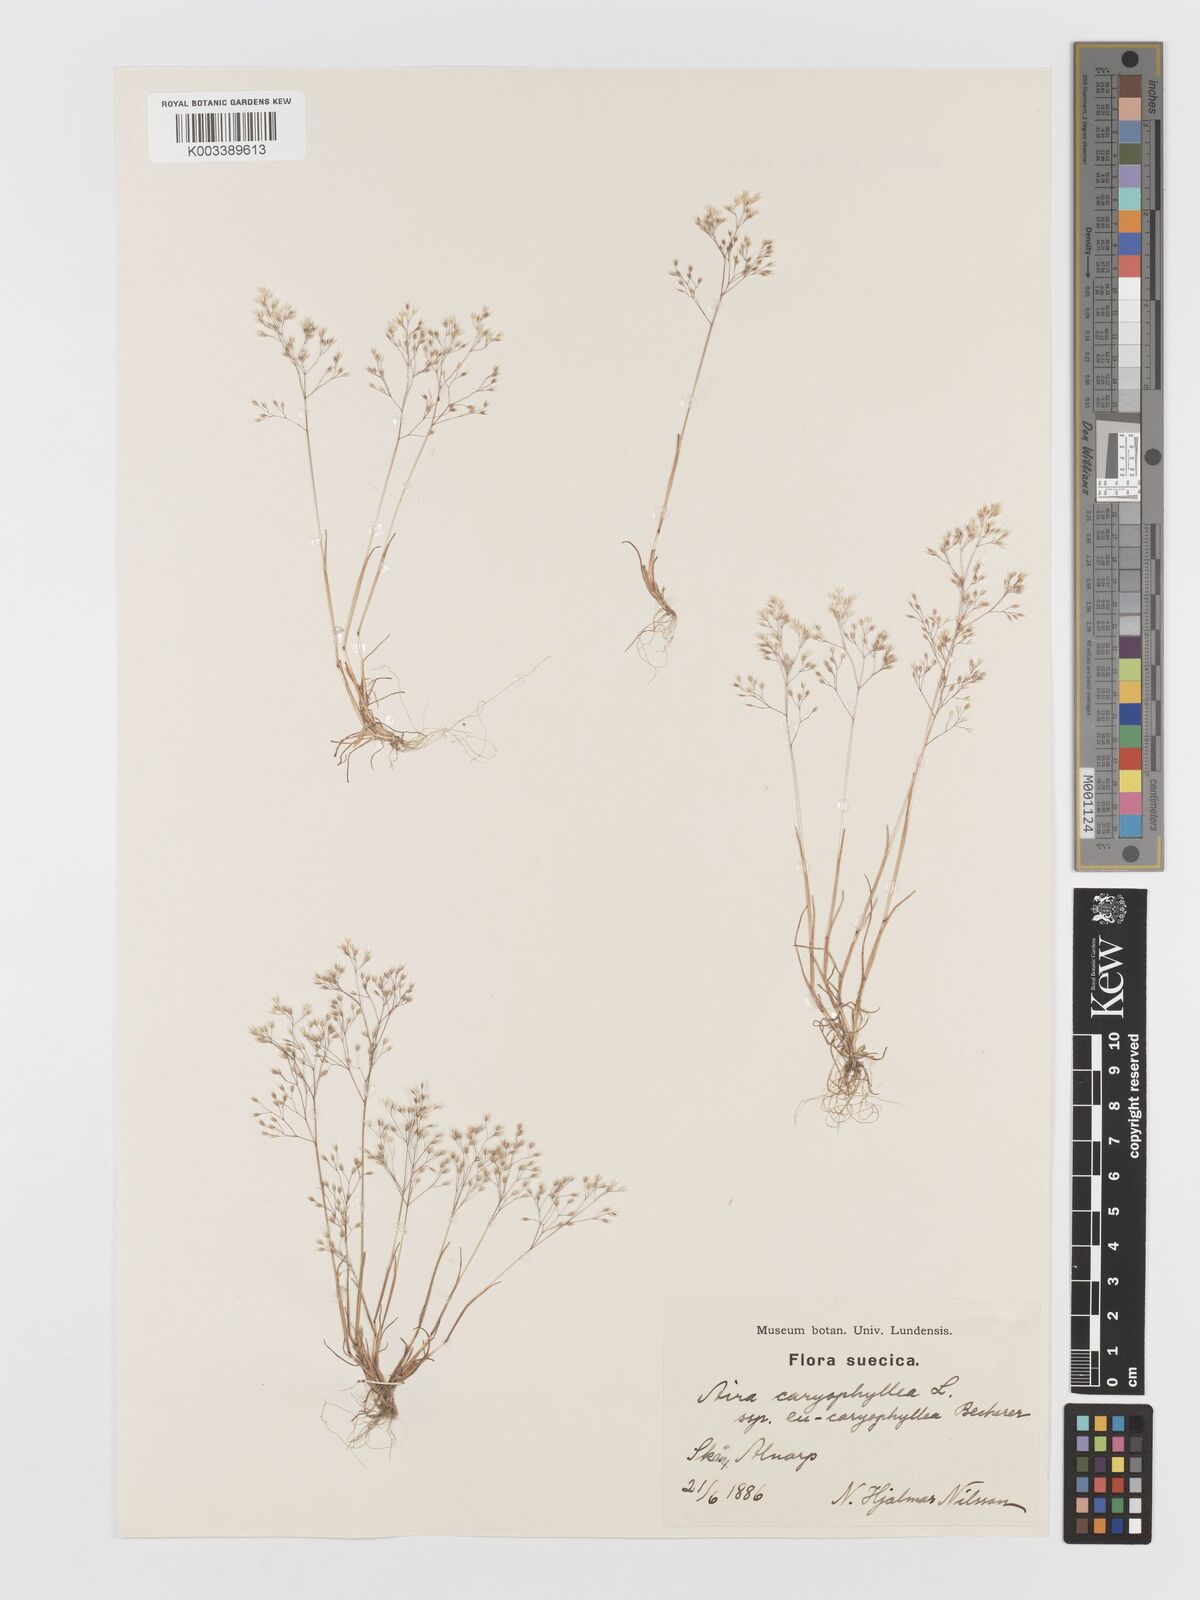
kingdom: Plantae
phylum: Tracheophyta
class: Liliopsida
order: Poales
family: Poaceae
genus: Aira
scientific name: Aira caryophyllea
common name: Silver hairgrass
